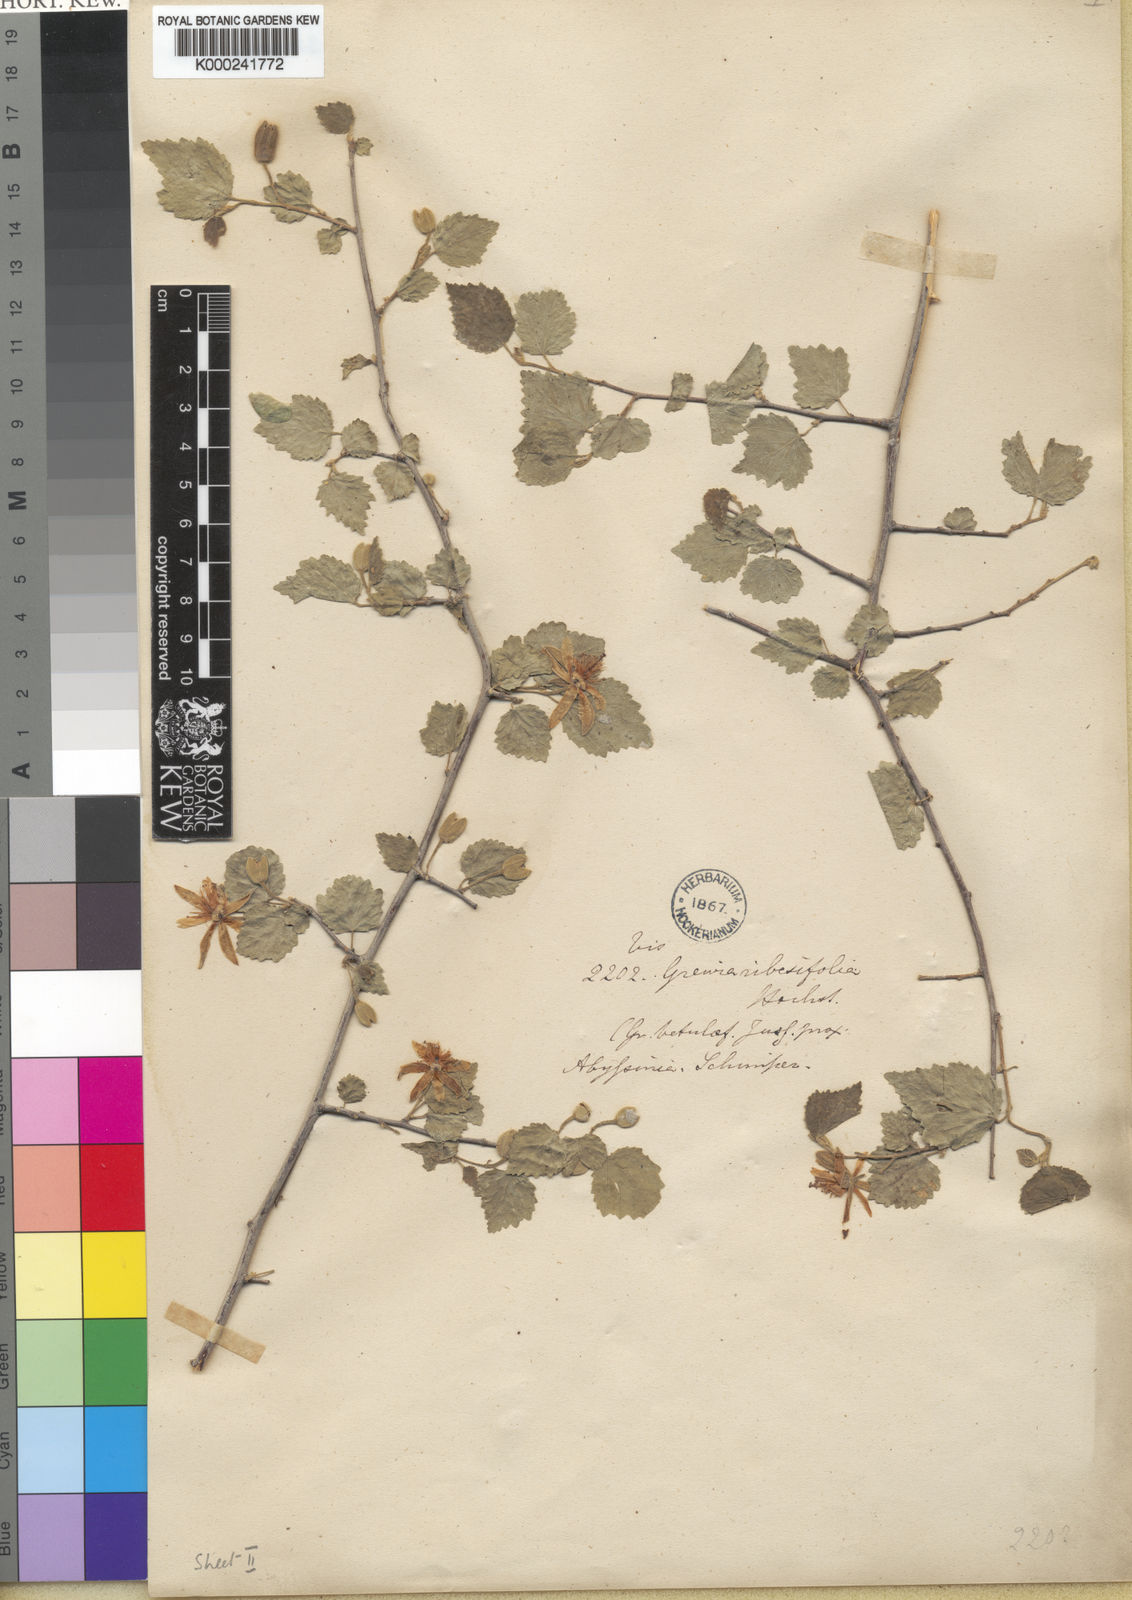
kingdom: Plantae
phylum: Tracheophyta
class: Magnoliopsida
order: Malvales
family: Malvaceae
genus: Grewia
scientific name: Grewia tenax
